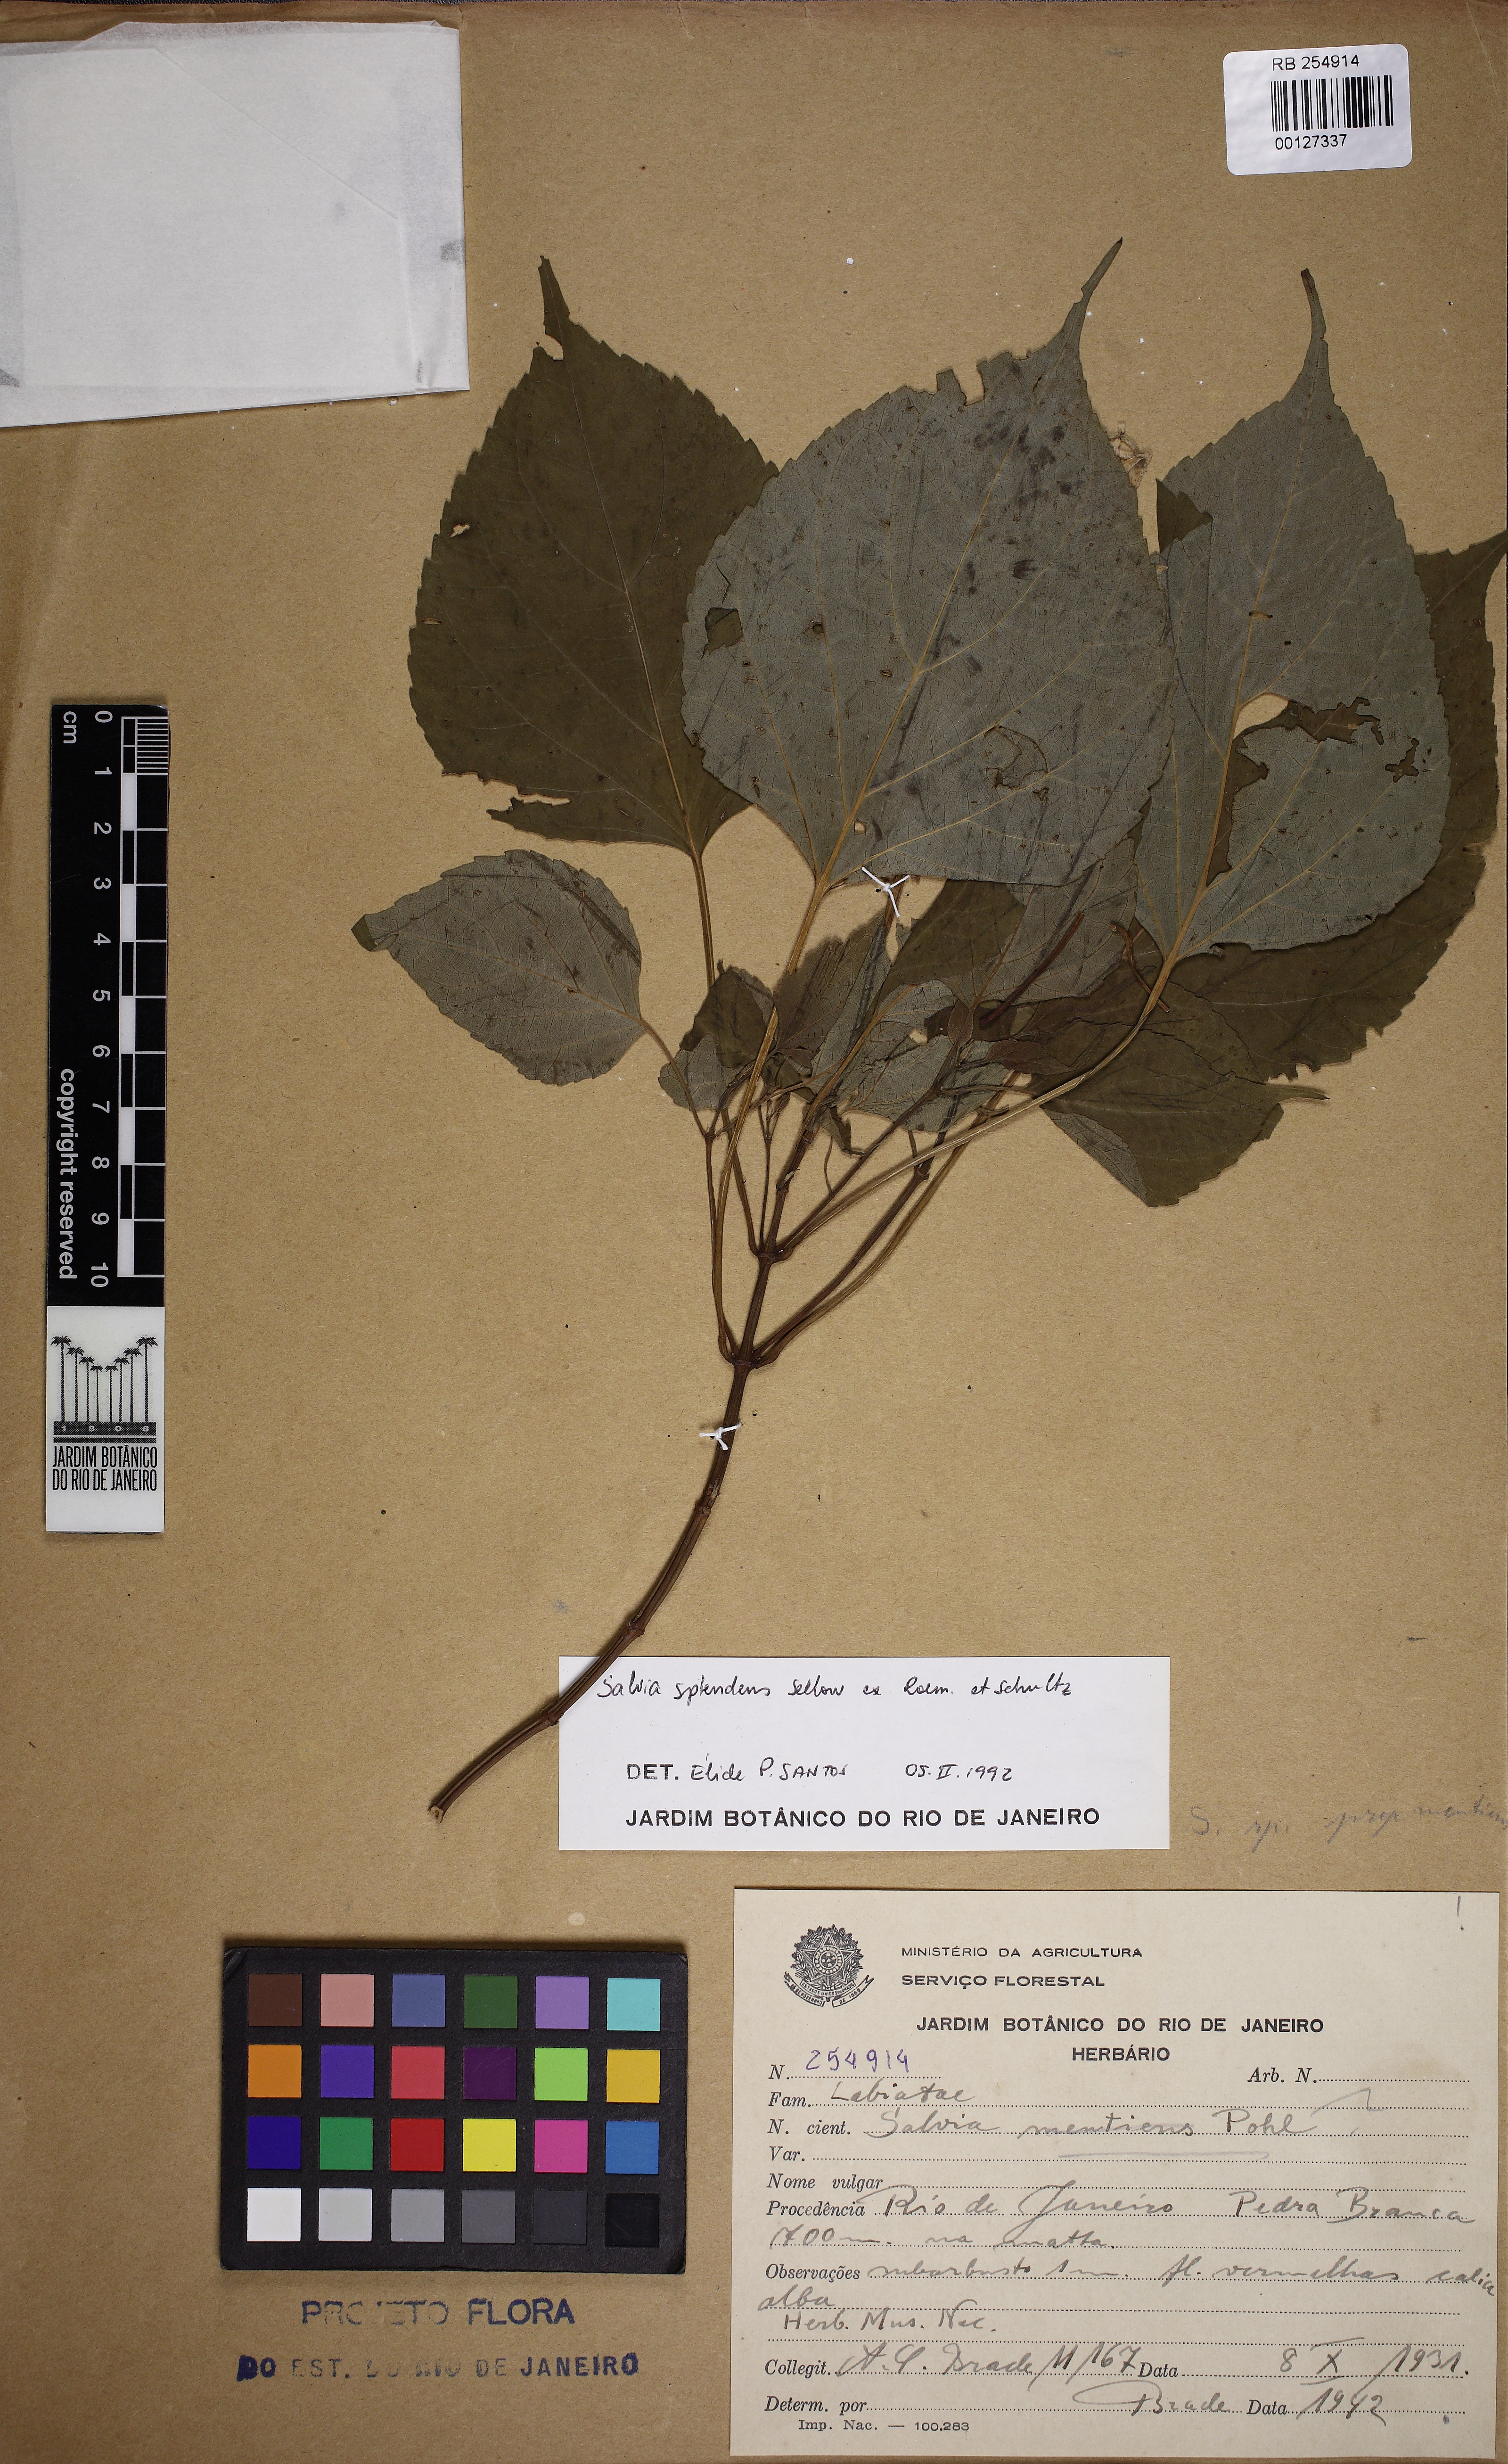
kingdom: Plantae
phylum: Tracheophyta
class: Magnoliopsida
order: Lamiales
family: Lamiaceae
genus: Salvia
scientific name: Salvia splendens
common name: Scarlet sage
